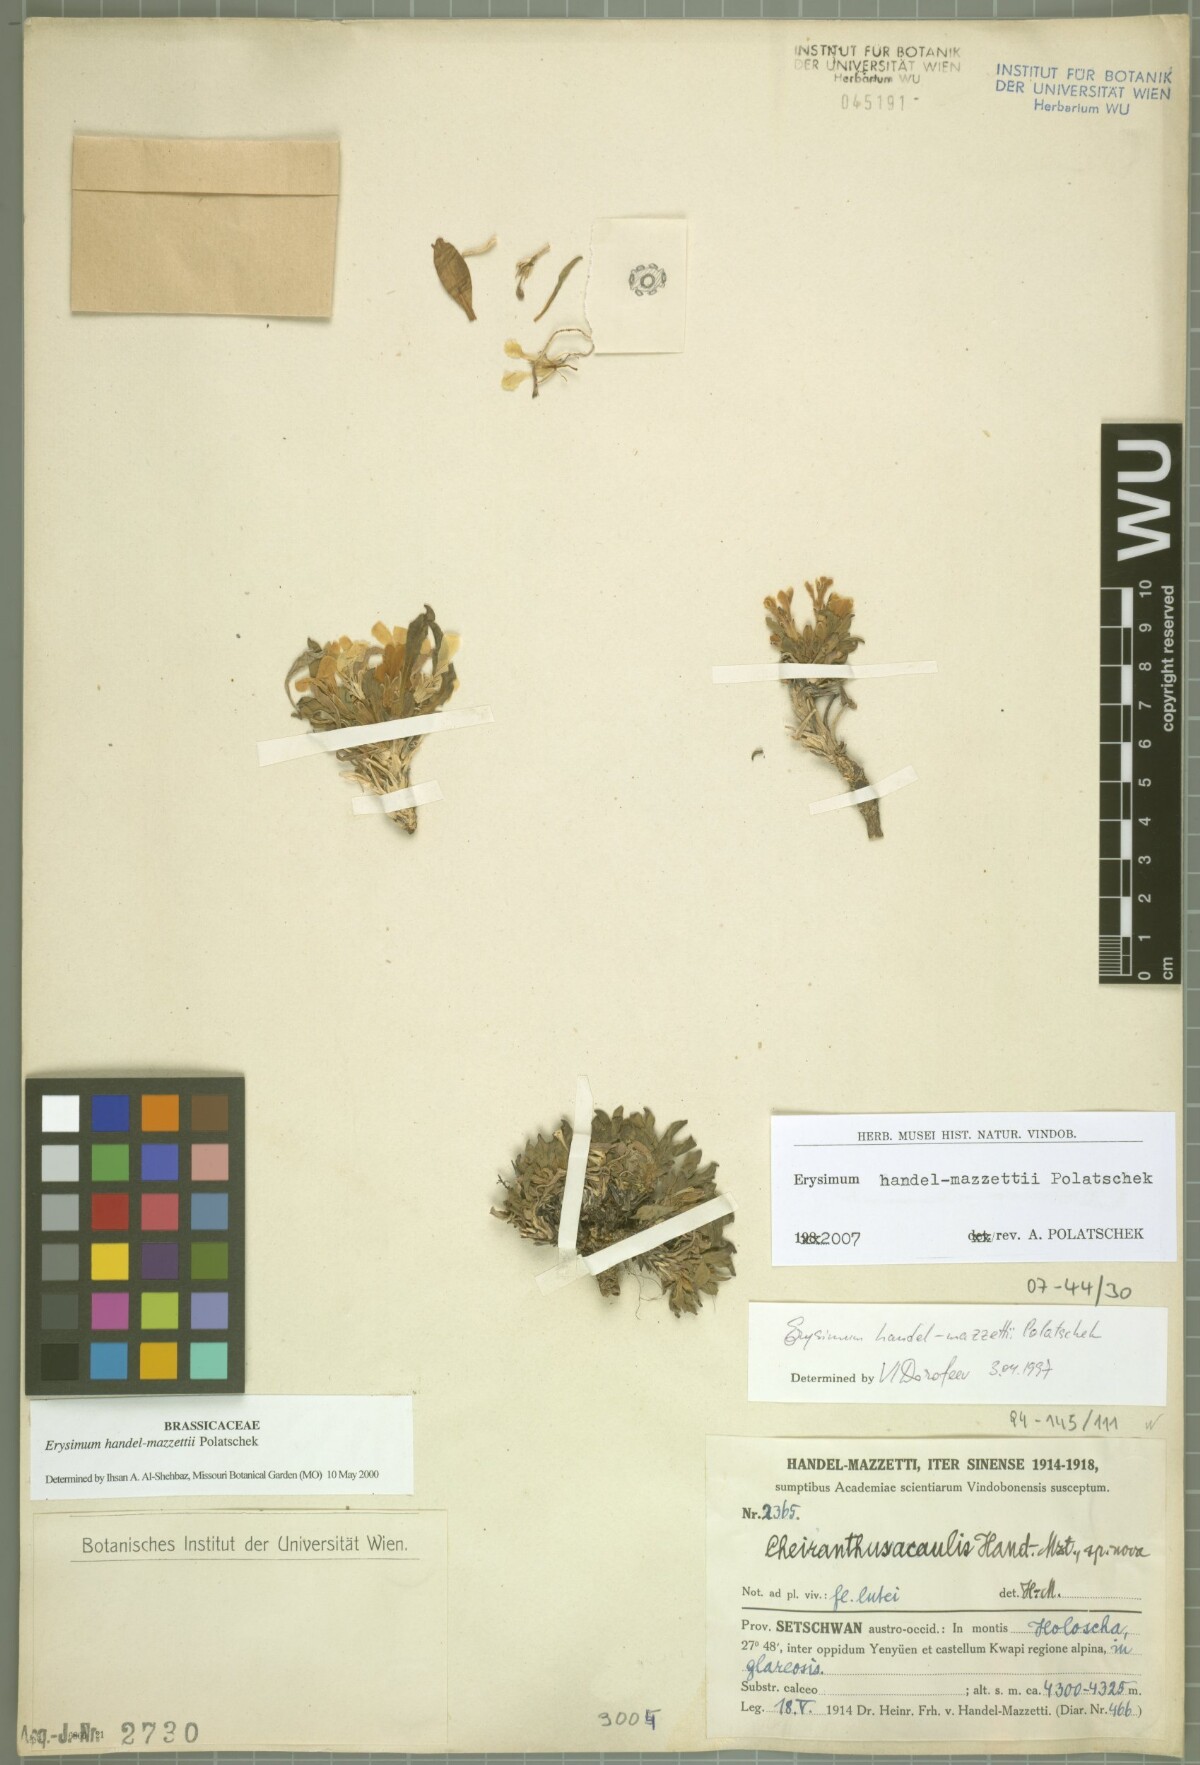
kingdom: Plantae
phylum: Tracheophyta
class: Magnoliopsida
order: Brassicales
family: Brassicaceae
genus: Erysimum
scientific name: Erysimum handel-mazzettii
